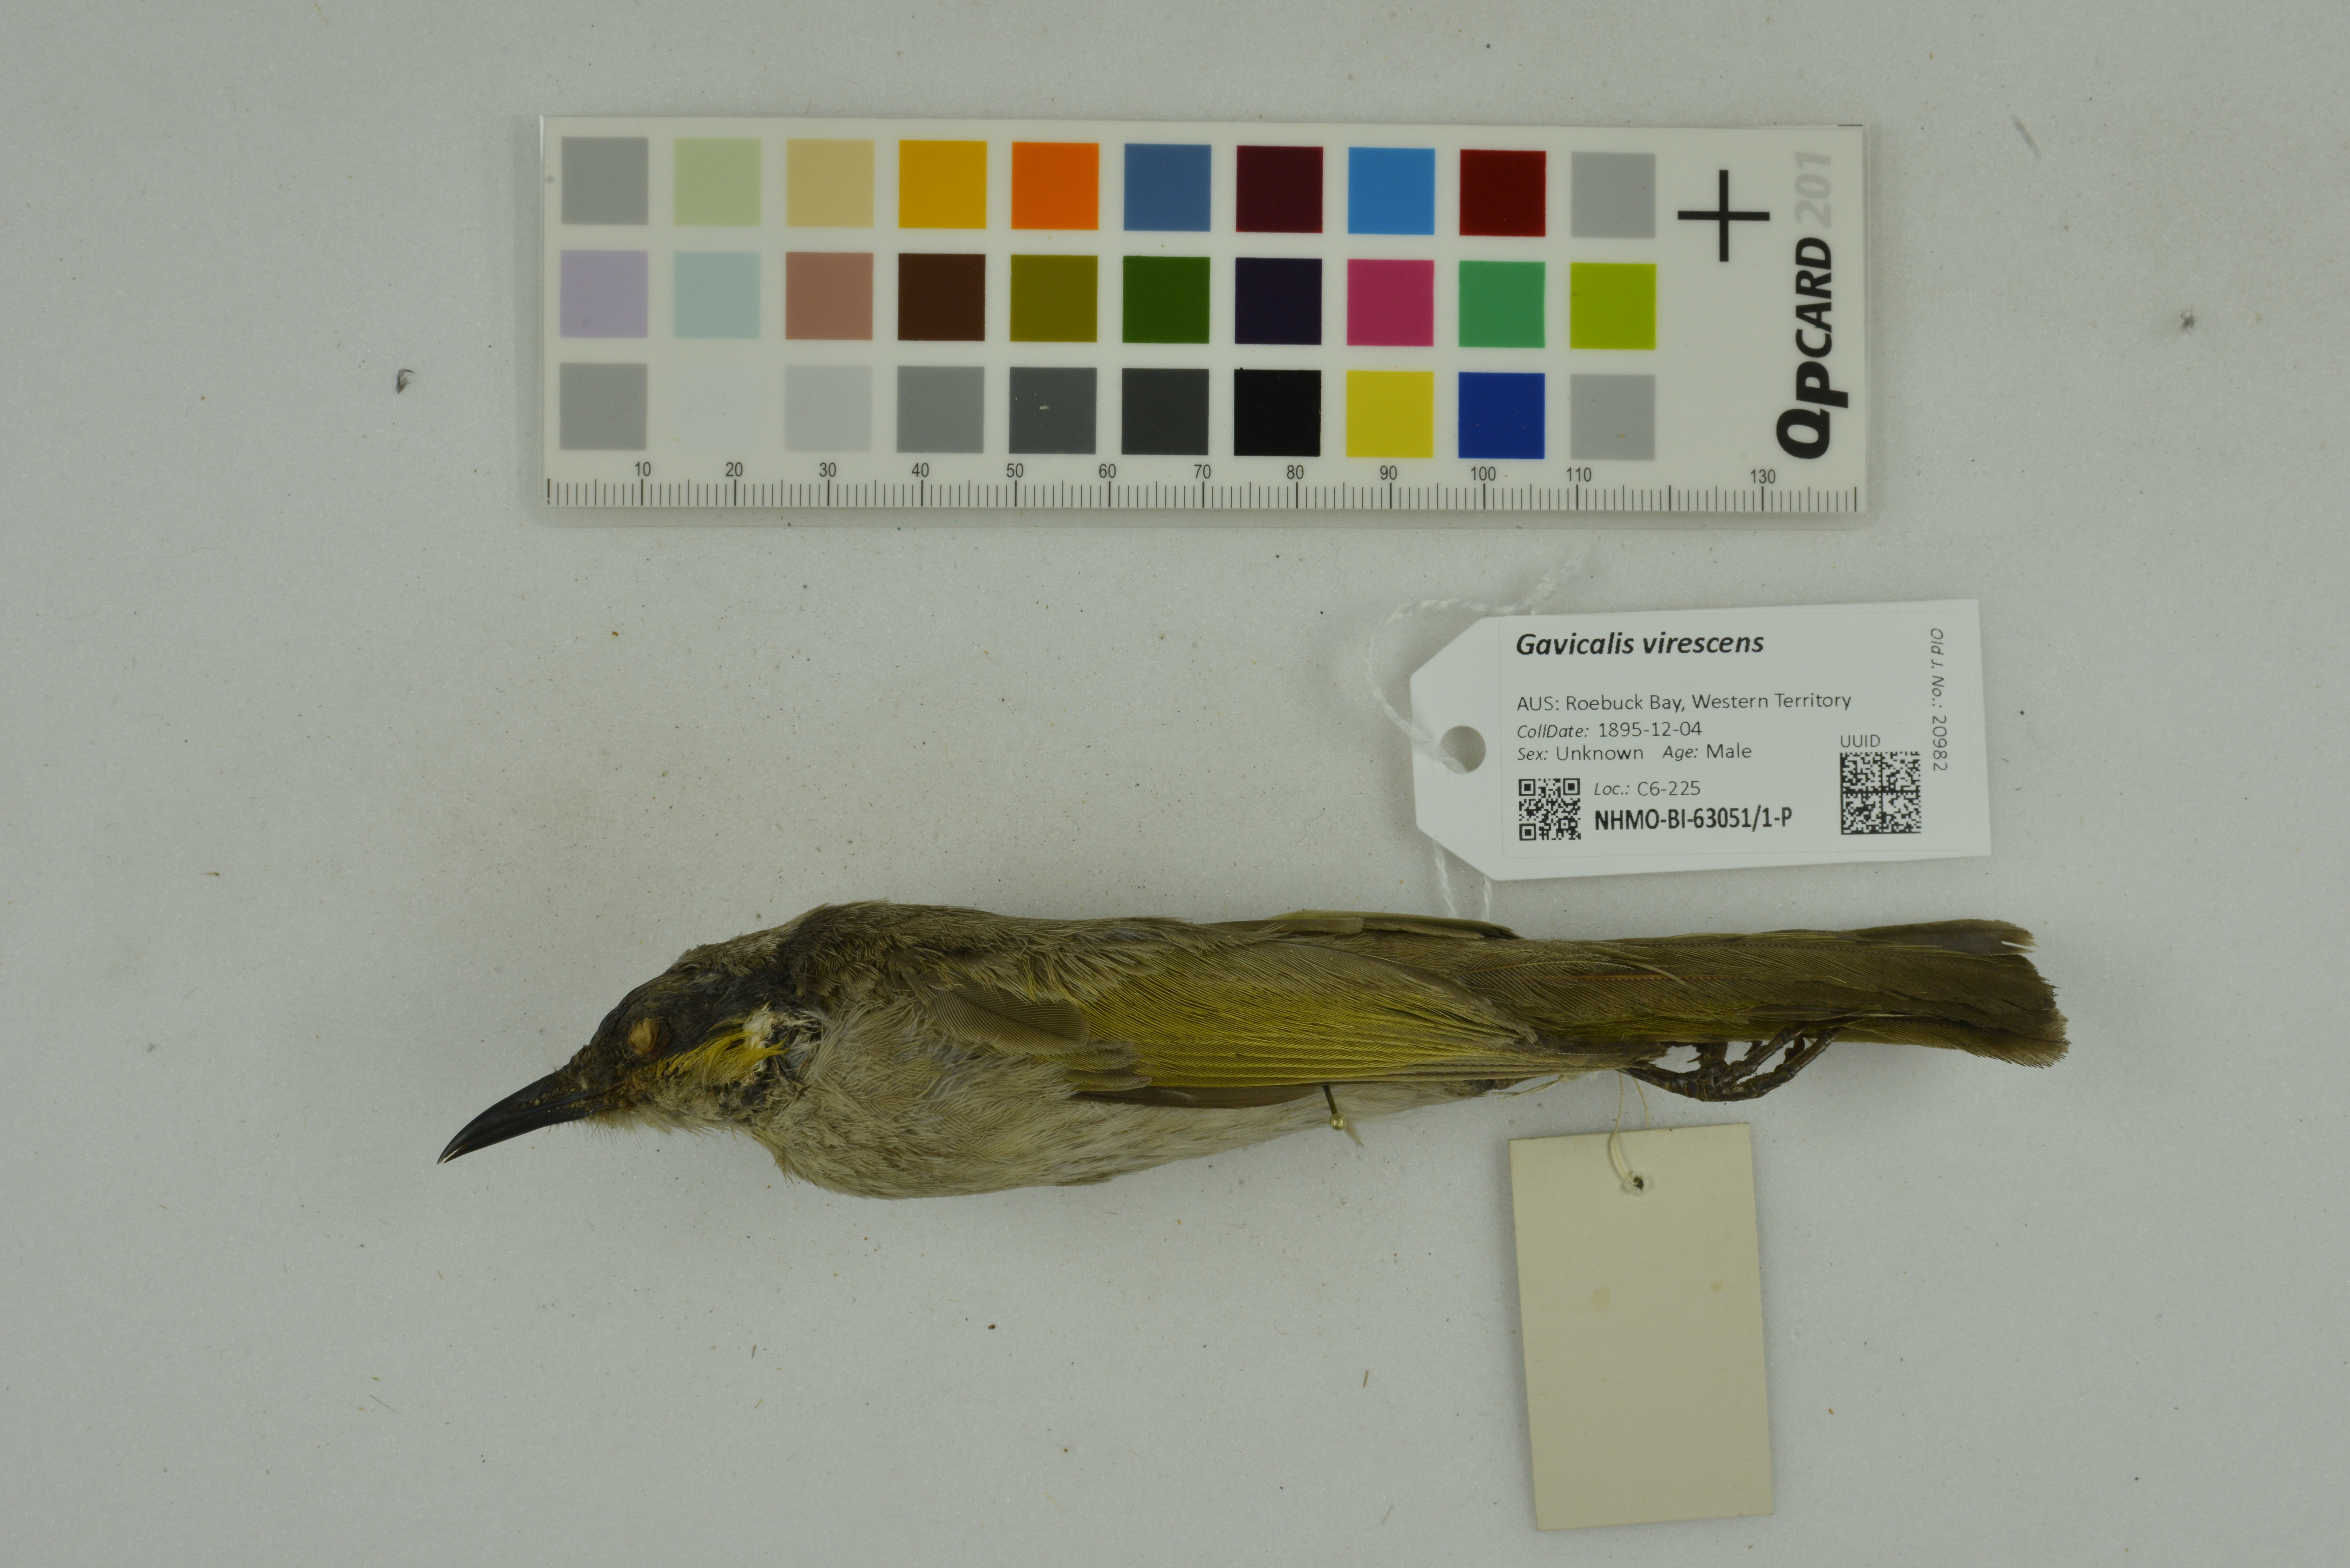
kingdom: Animalia
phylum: Chordata
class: Aves
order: Passeriformes
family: Meliphagidae
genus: Gavicalis
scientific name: Gavicalis virescens
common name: Singing honeyeater
